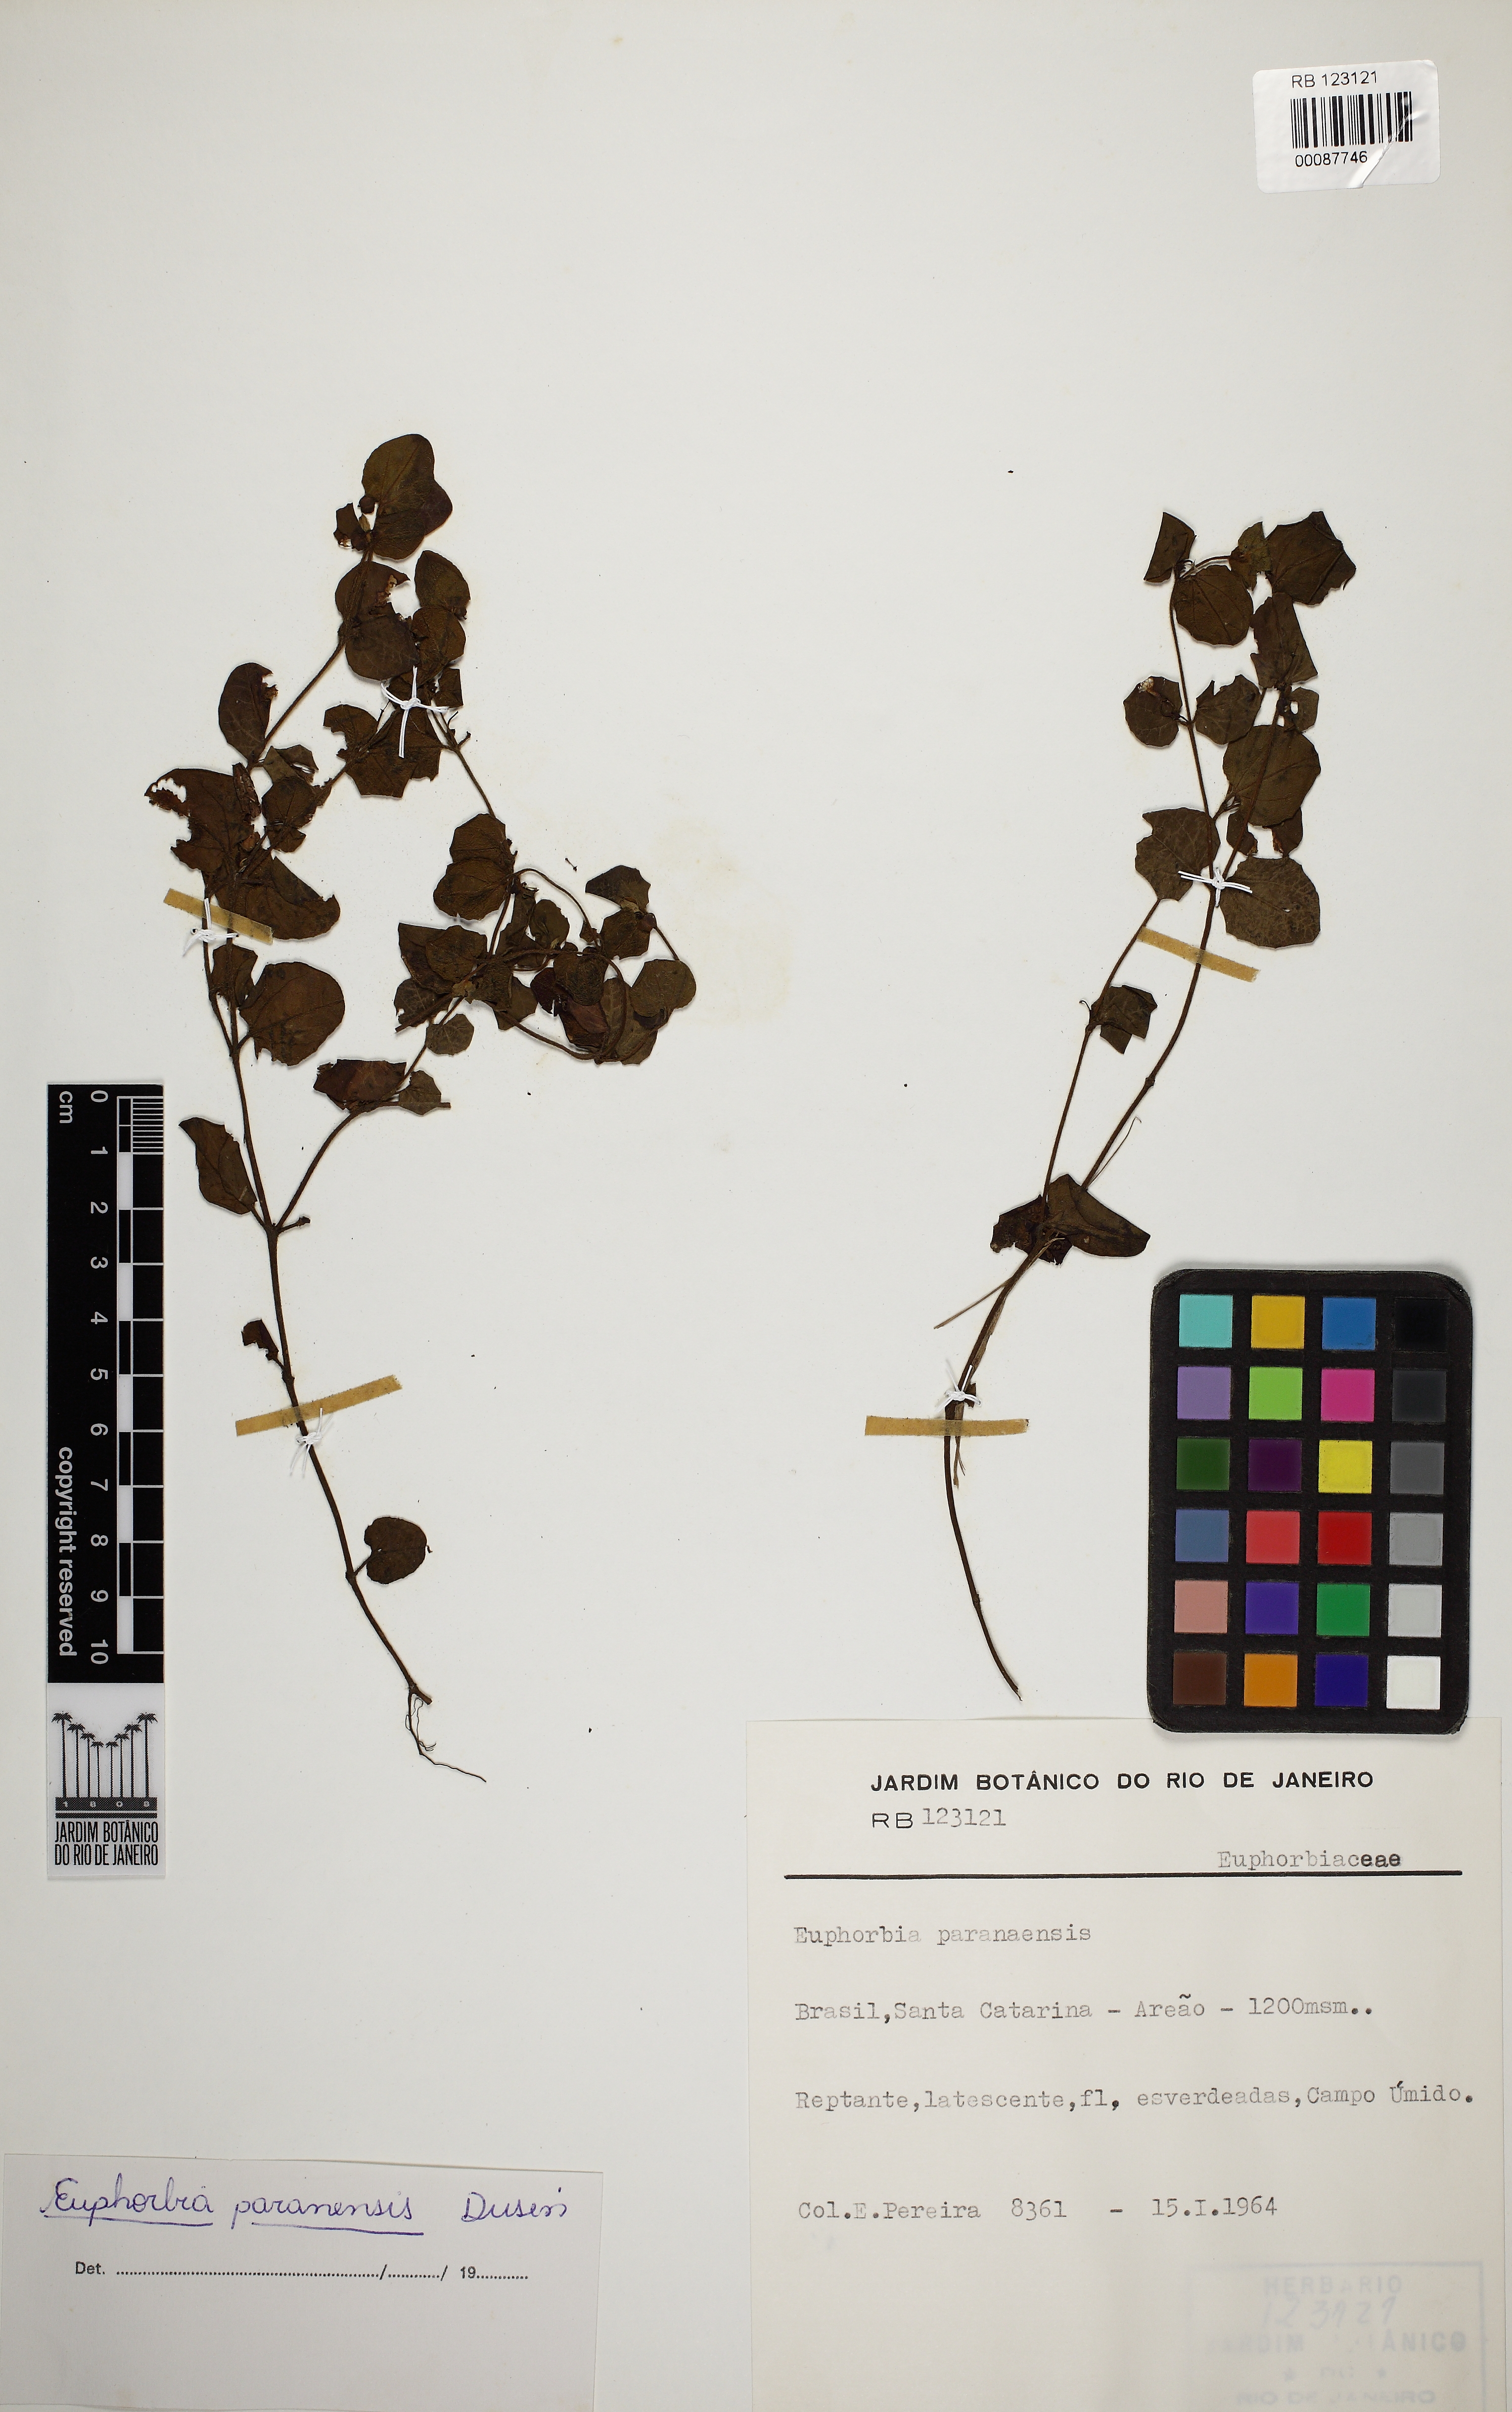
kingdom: Plantae
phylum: Tracheophyta
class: Magnoliopsida
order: Malpighiales
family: Euphorbiaceae
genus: Euphorbia
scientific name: Euphorbia paranensis
